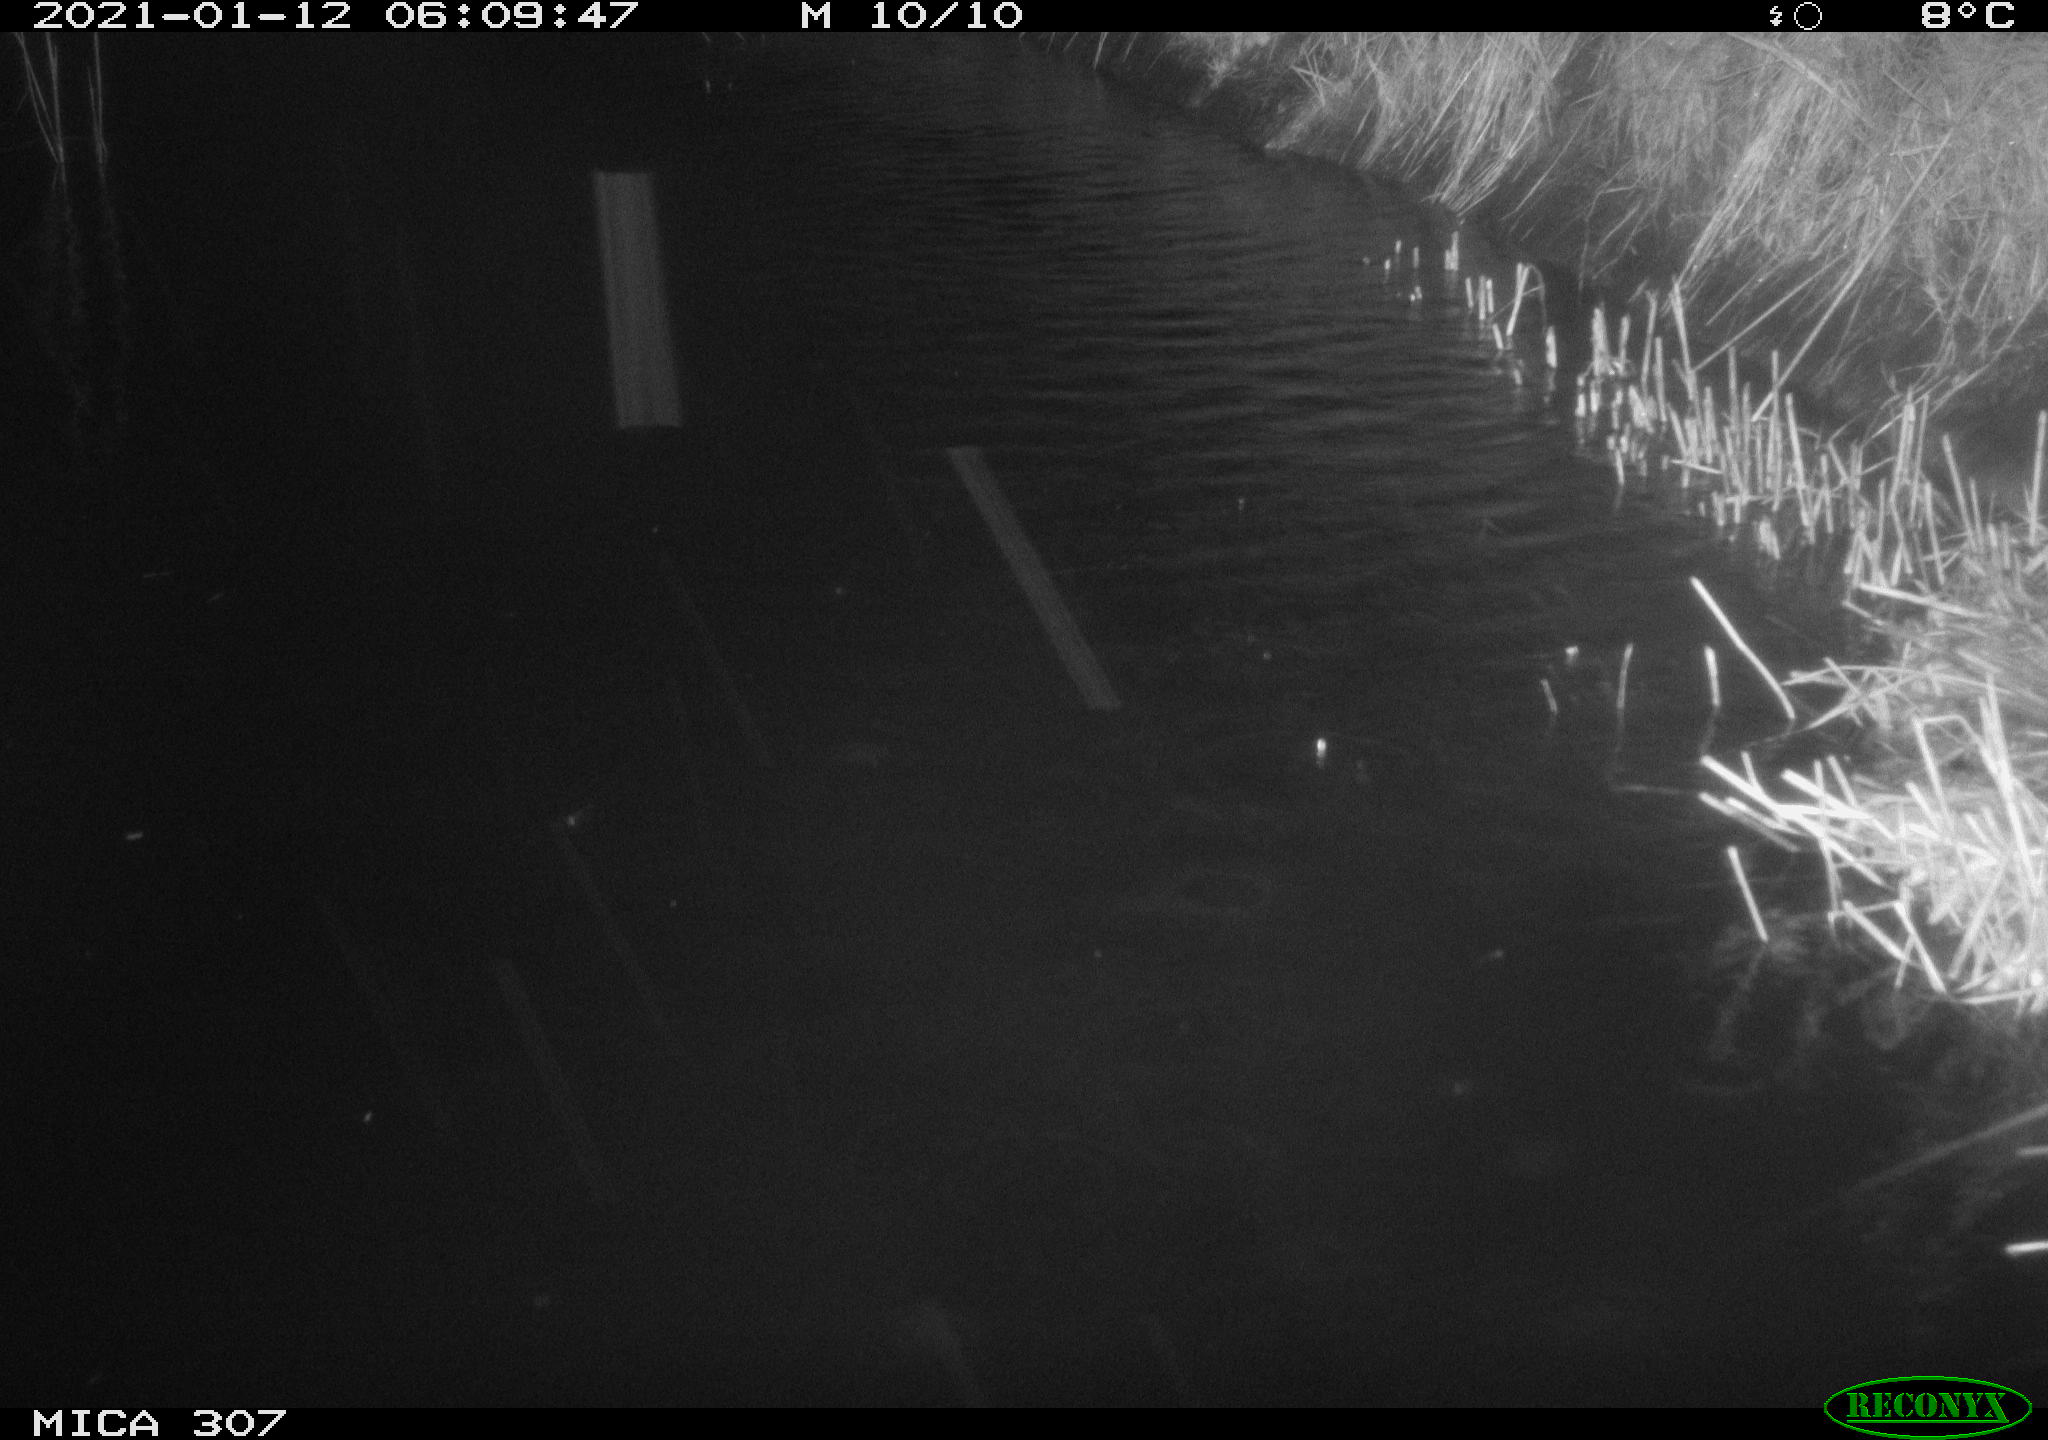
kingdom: Animalia
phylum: Chordata
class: Mammalia
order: Rodentia
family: Muridae
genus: Rattus
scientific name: Rattus norvegicus
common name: Brown rat
